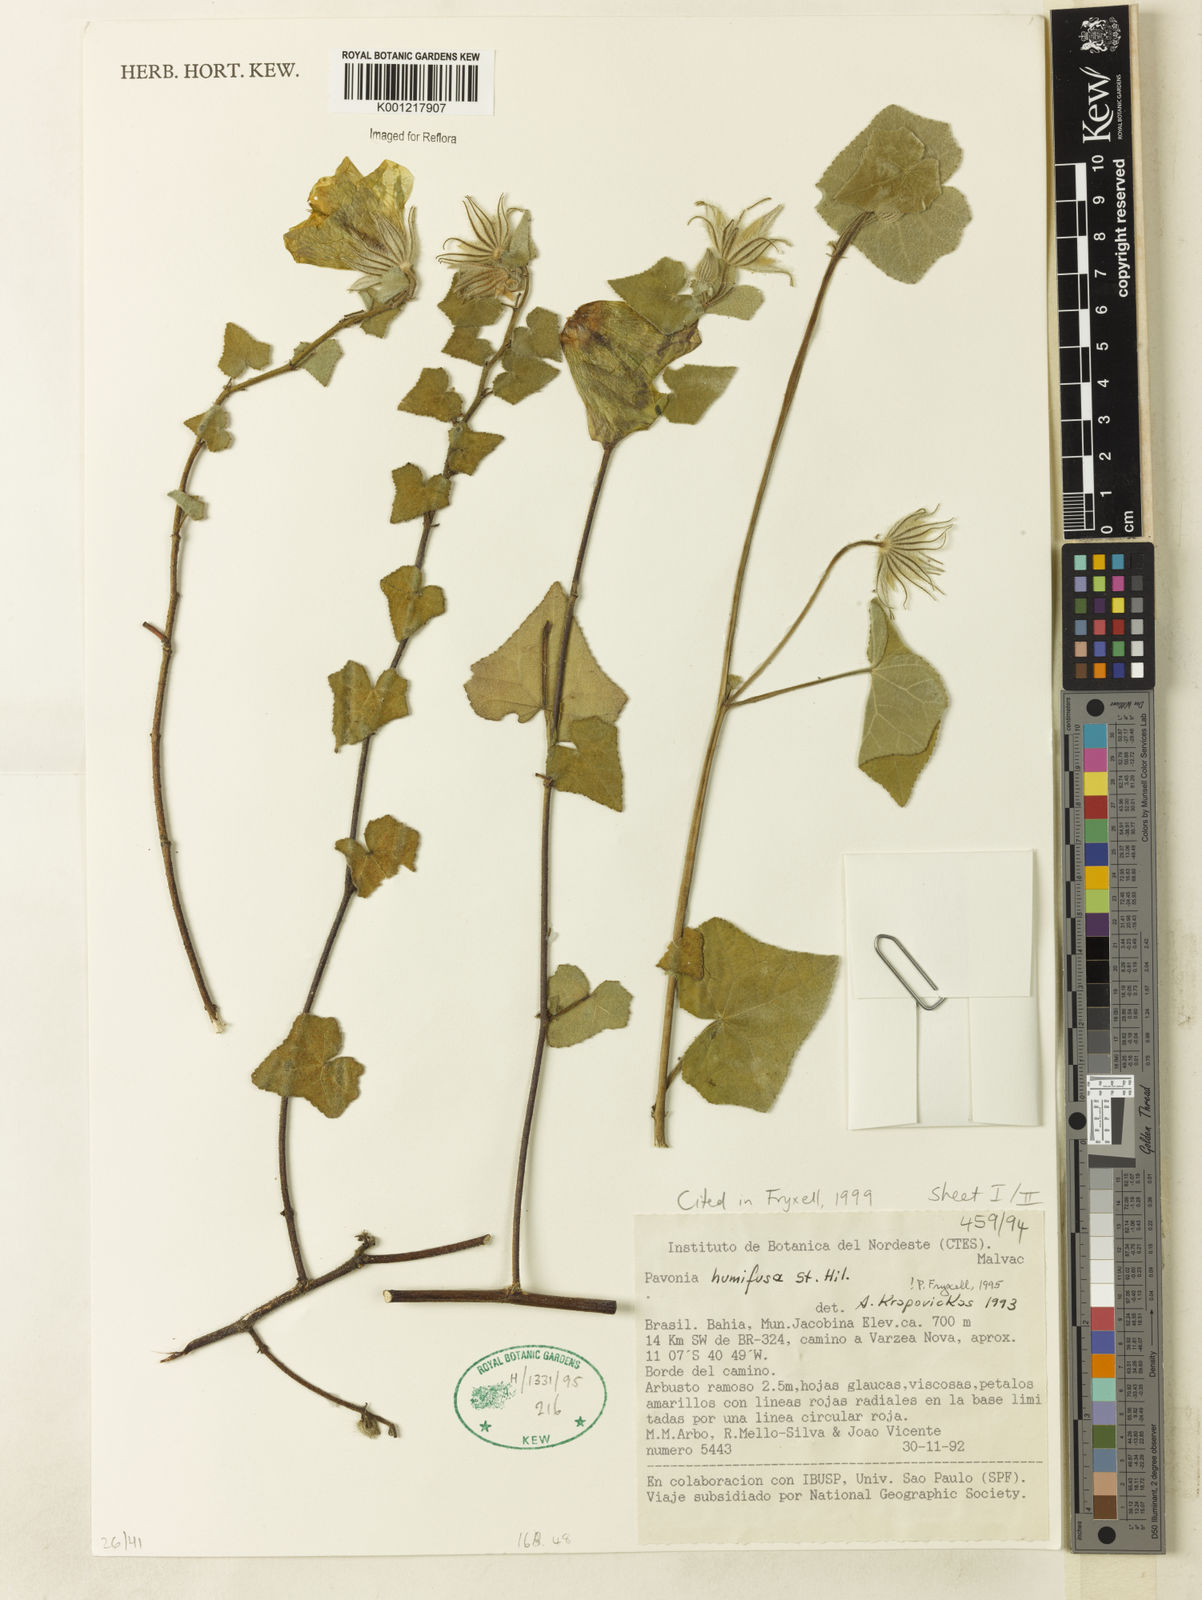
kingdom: Plantae
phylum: Tracheophyta
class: Magnoliopsida
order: Malvales
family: Malvaceae
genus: Pavonia
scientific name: Pavonia humifusa
